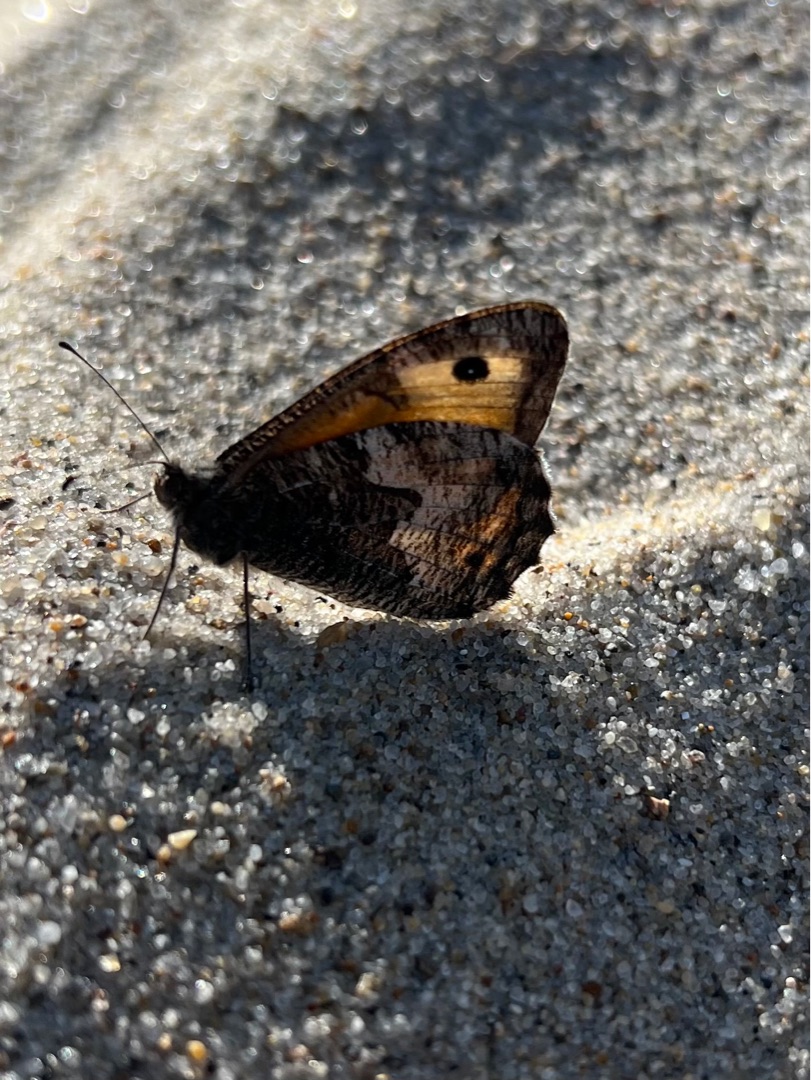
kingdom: Animalia
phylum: Arthropoda
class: Insecta
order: Lepidoptera
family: Nymphalidae
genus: Hipparchia
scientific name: Hipparchia semele
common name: Sandrandøje
